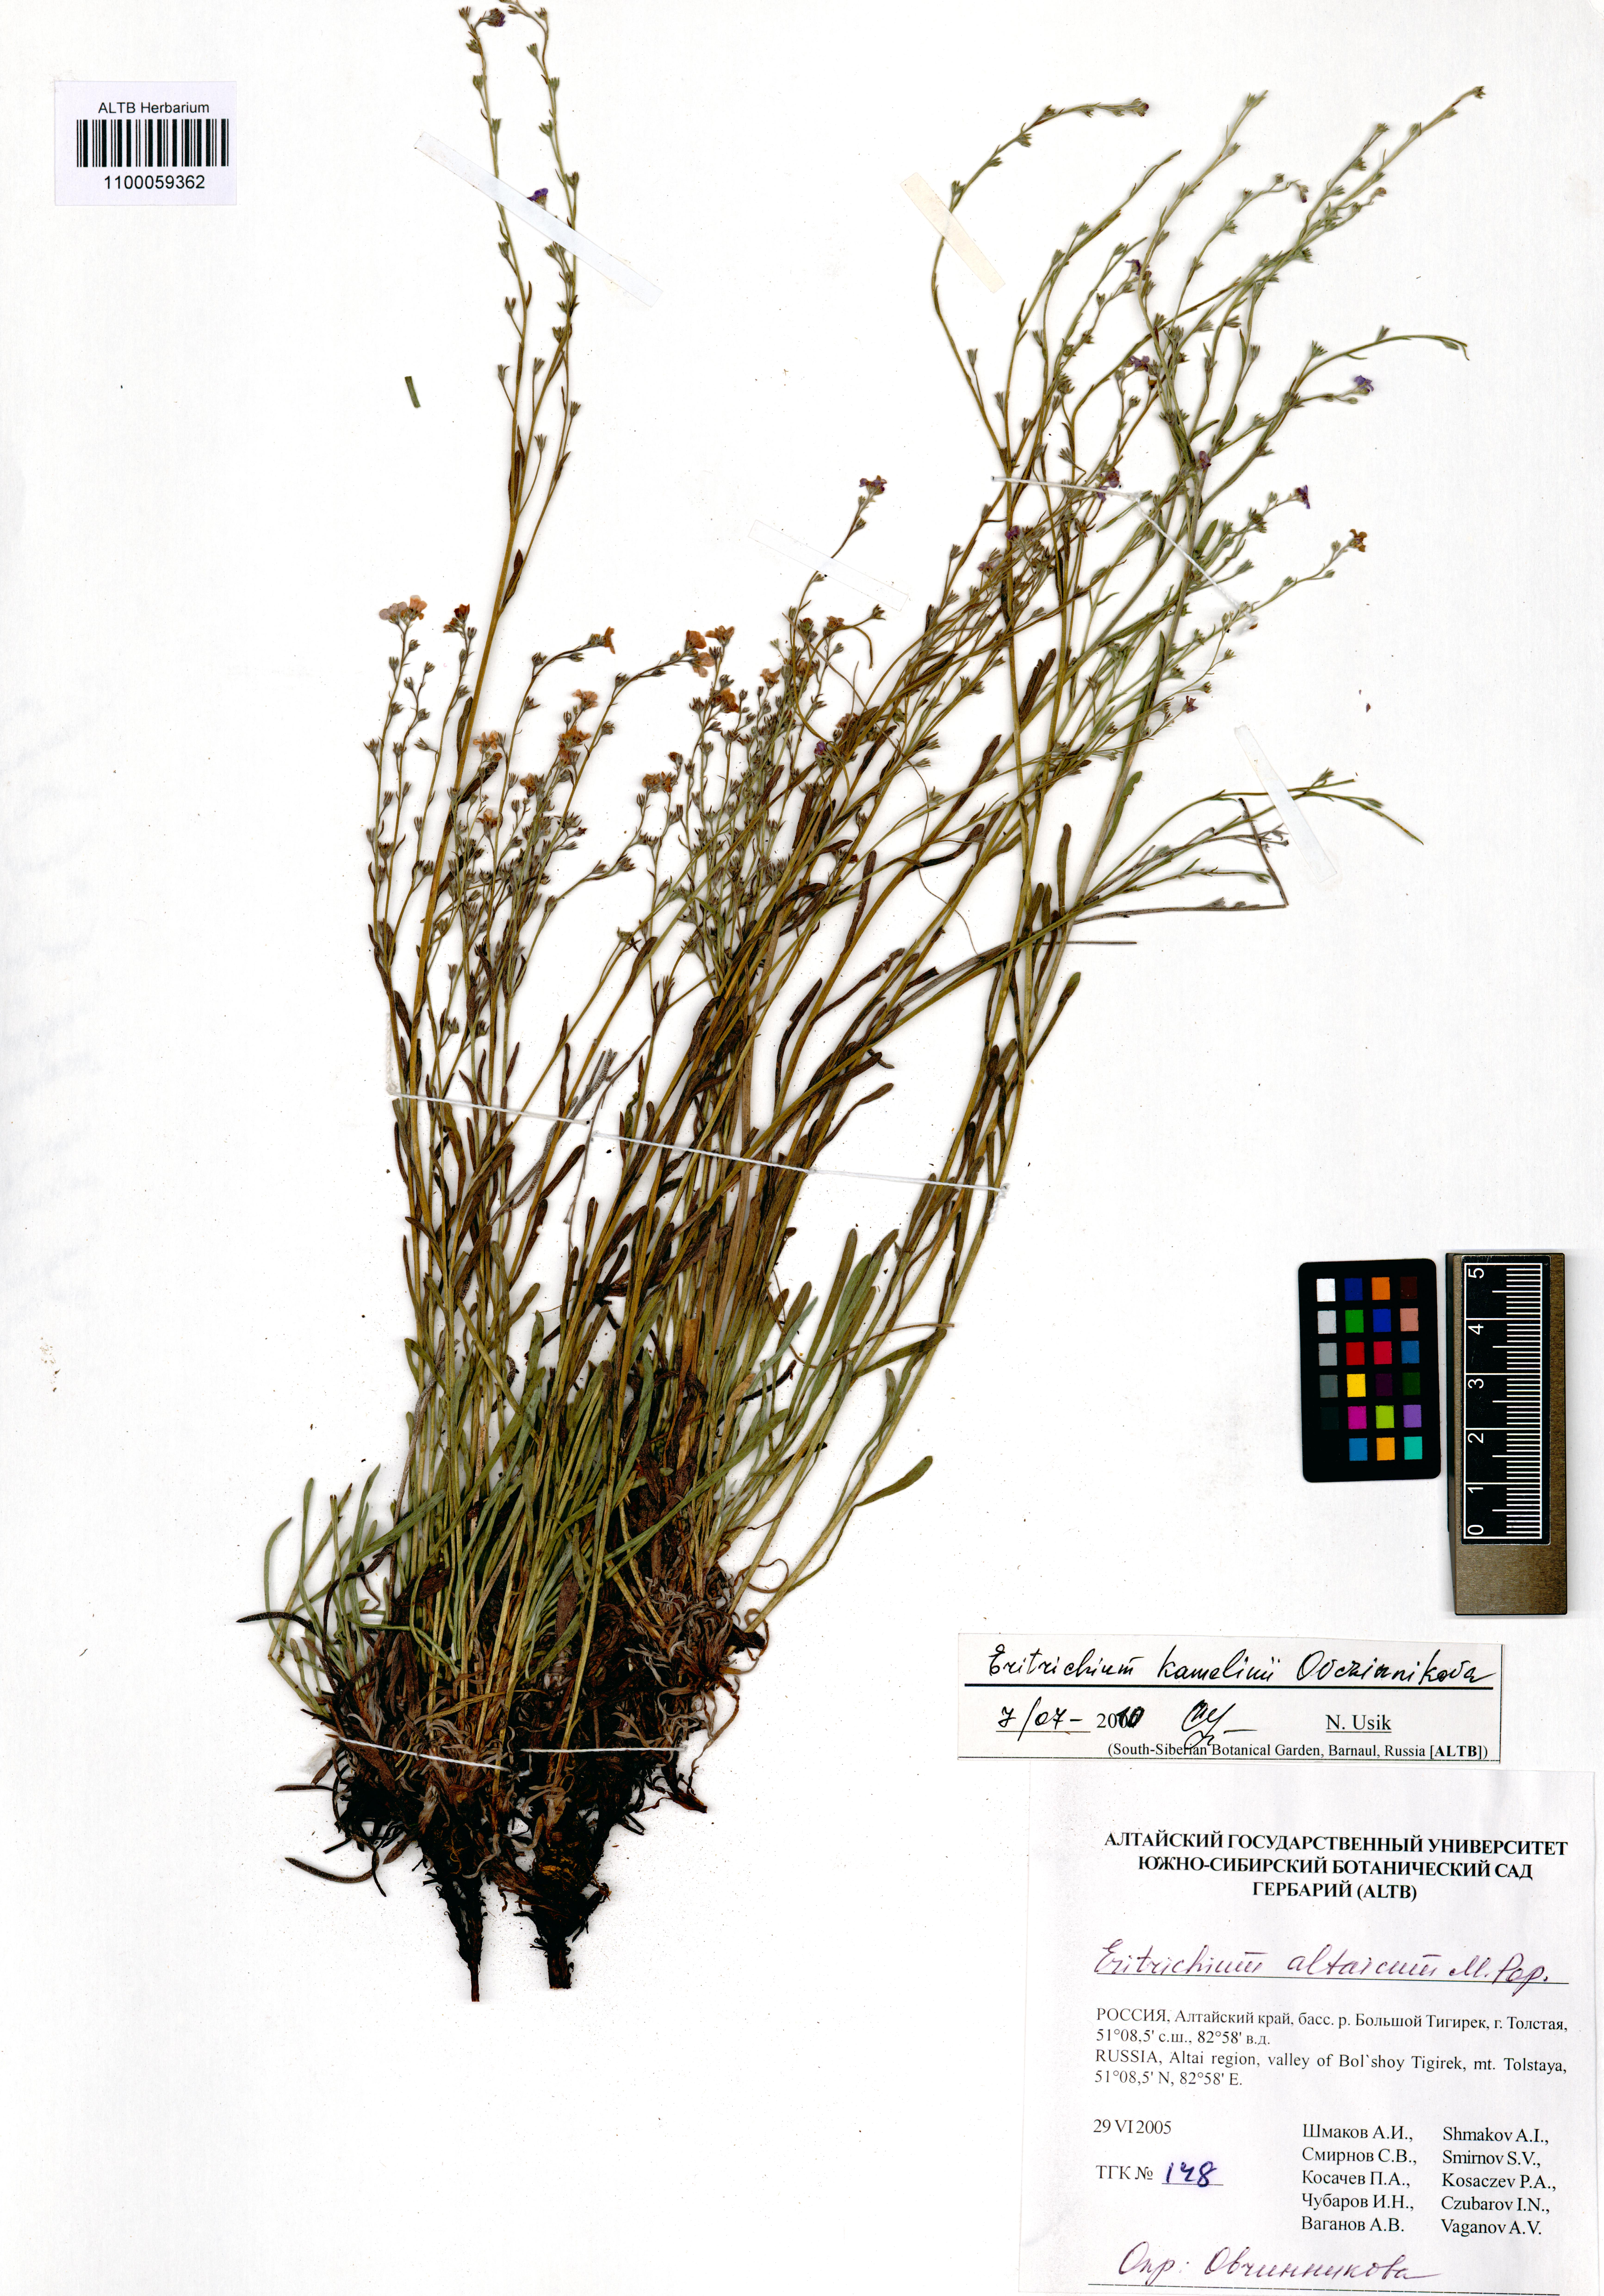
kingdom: Plantae
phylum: Tracheophyta
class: Magnoliopsida
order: Boraginales
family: Boraginaceae
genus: Eritrichium
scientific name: Eritrichium kamelinii
